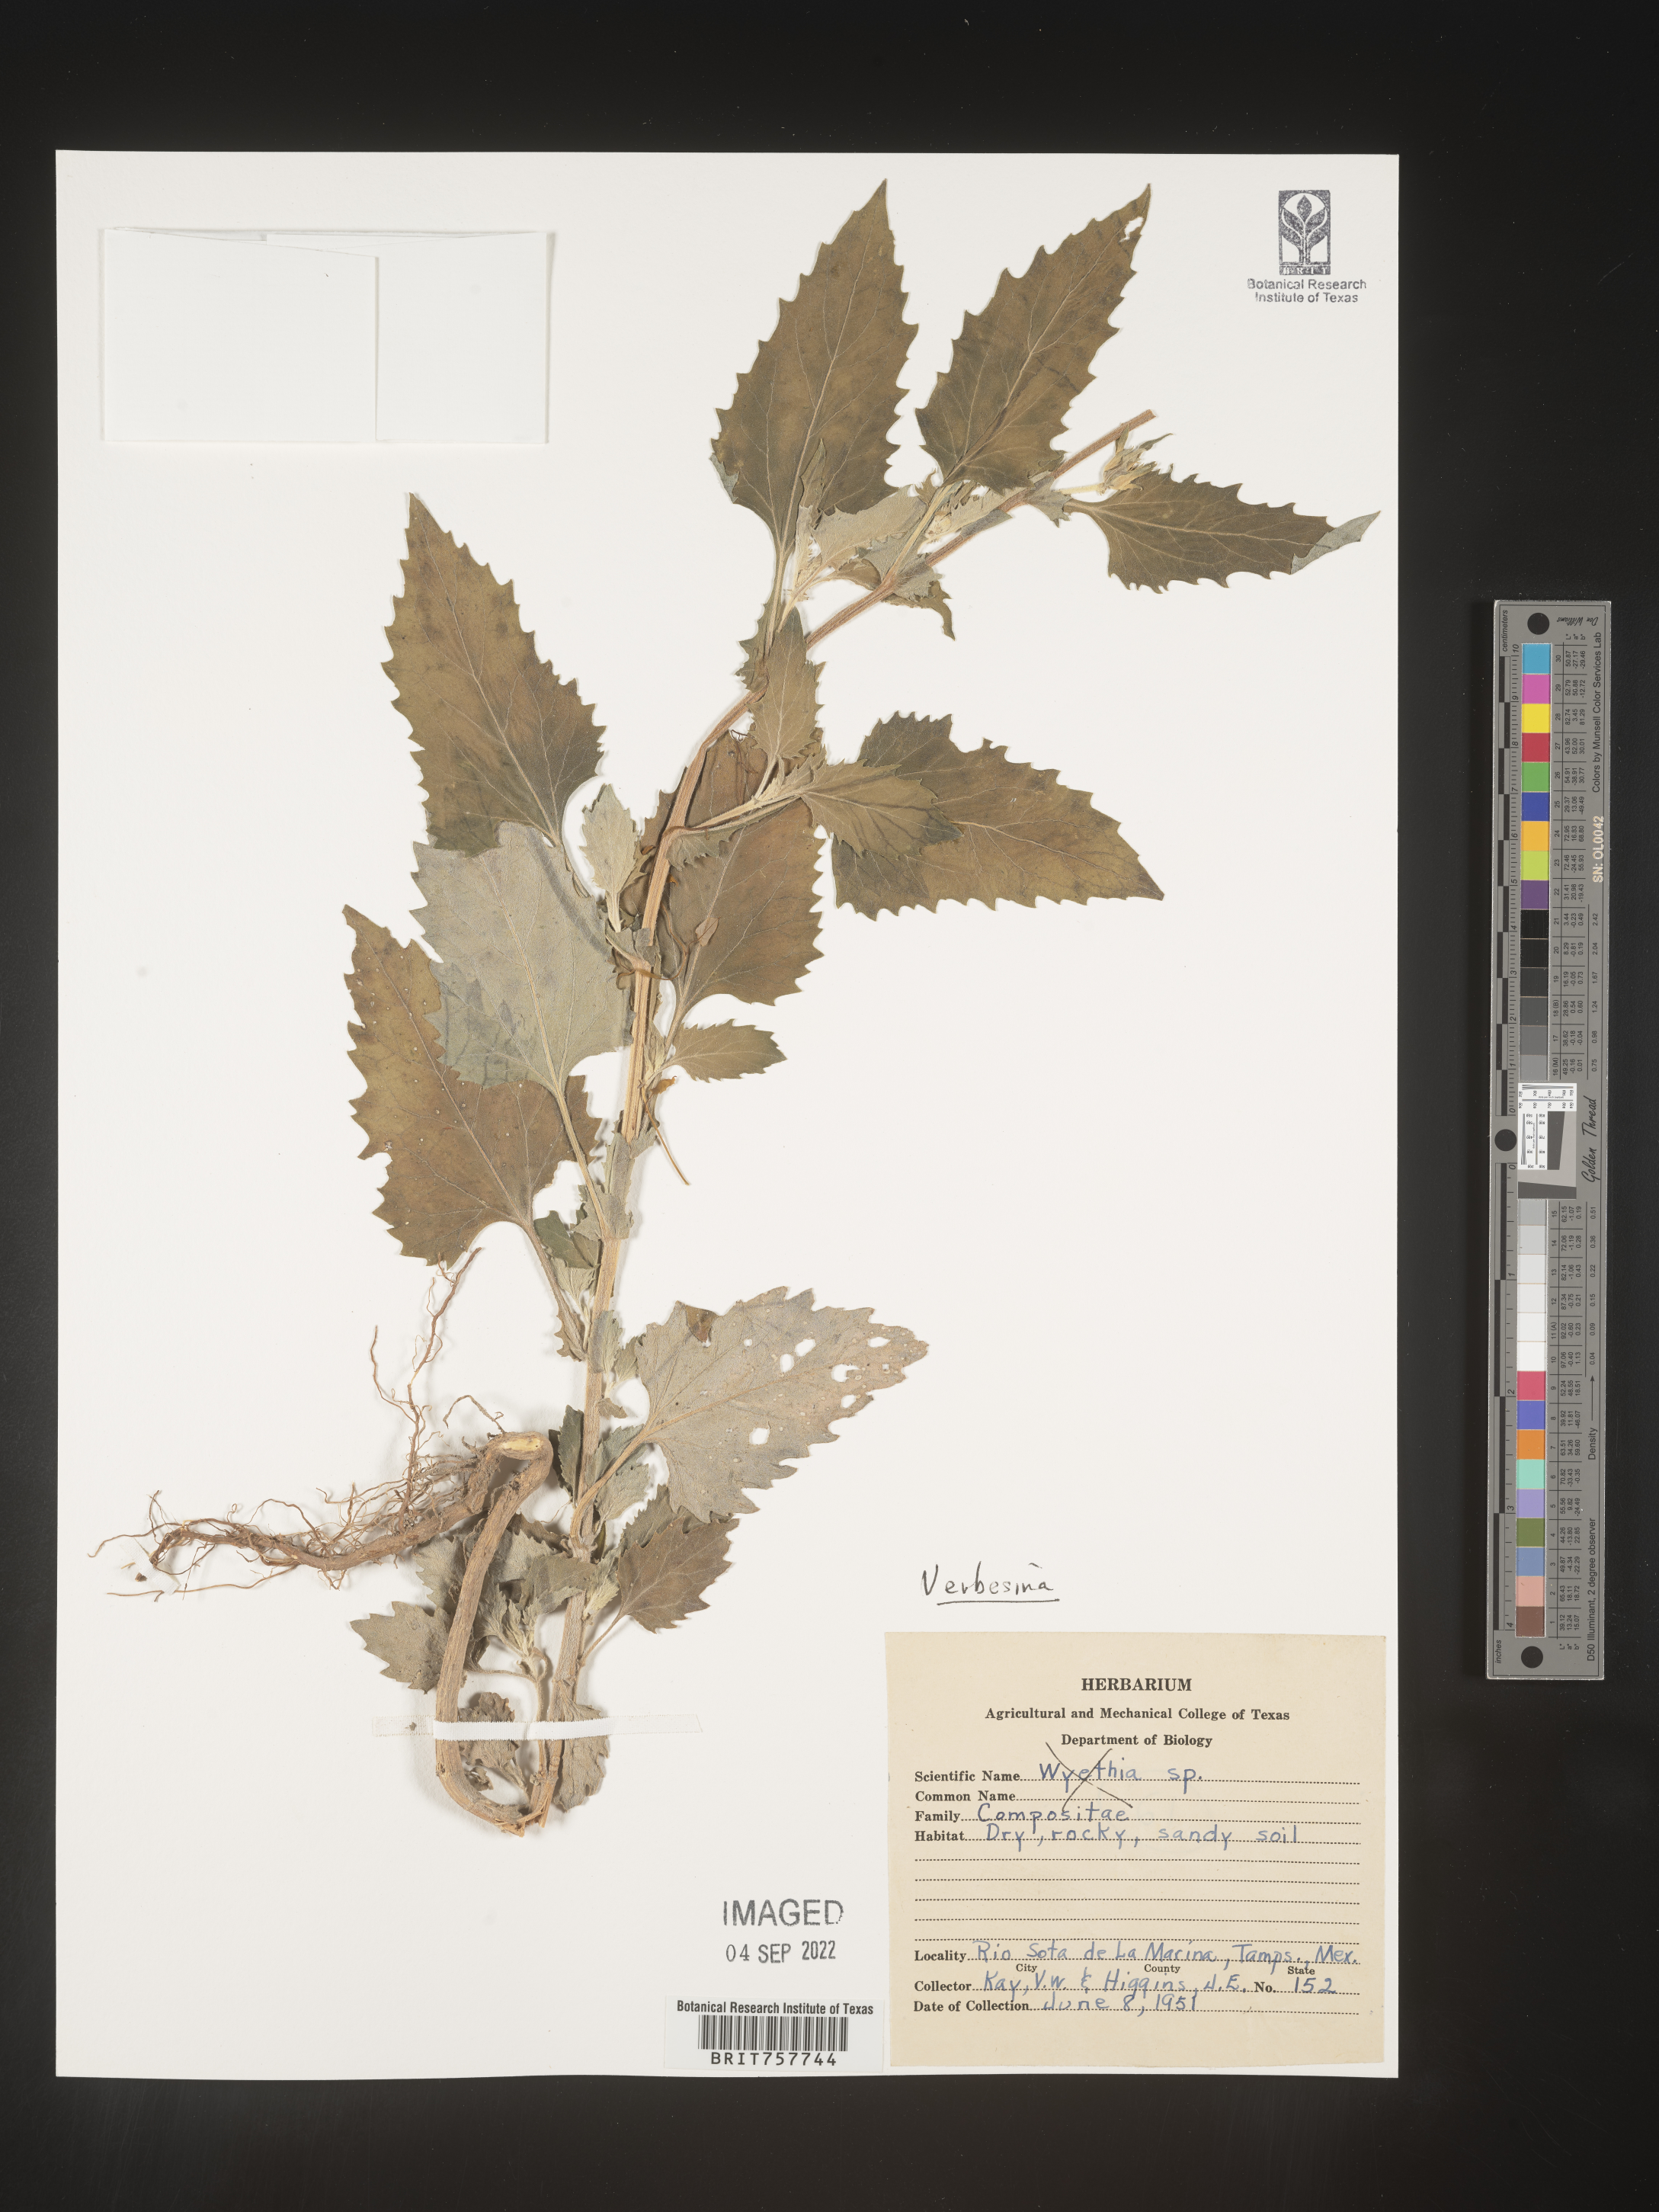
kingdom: Plantae
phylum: Tracheophyta
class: Magnoliopsida
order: Asterales
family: Asteraceae
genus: Verbesina
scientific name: Verbesina
